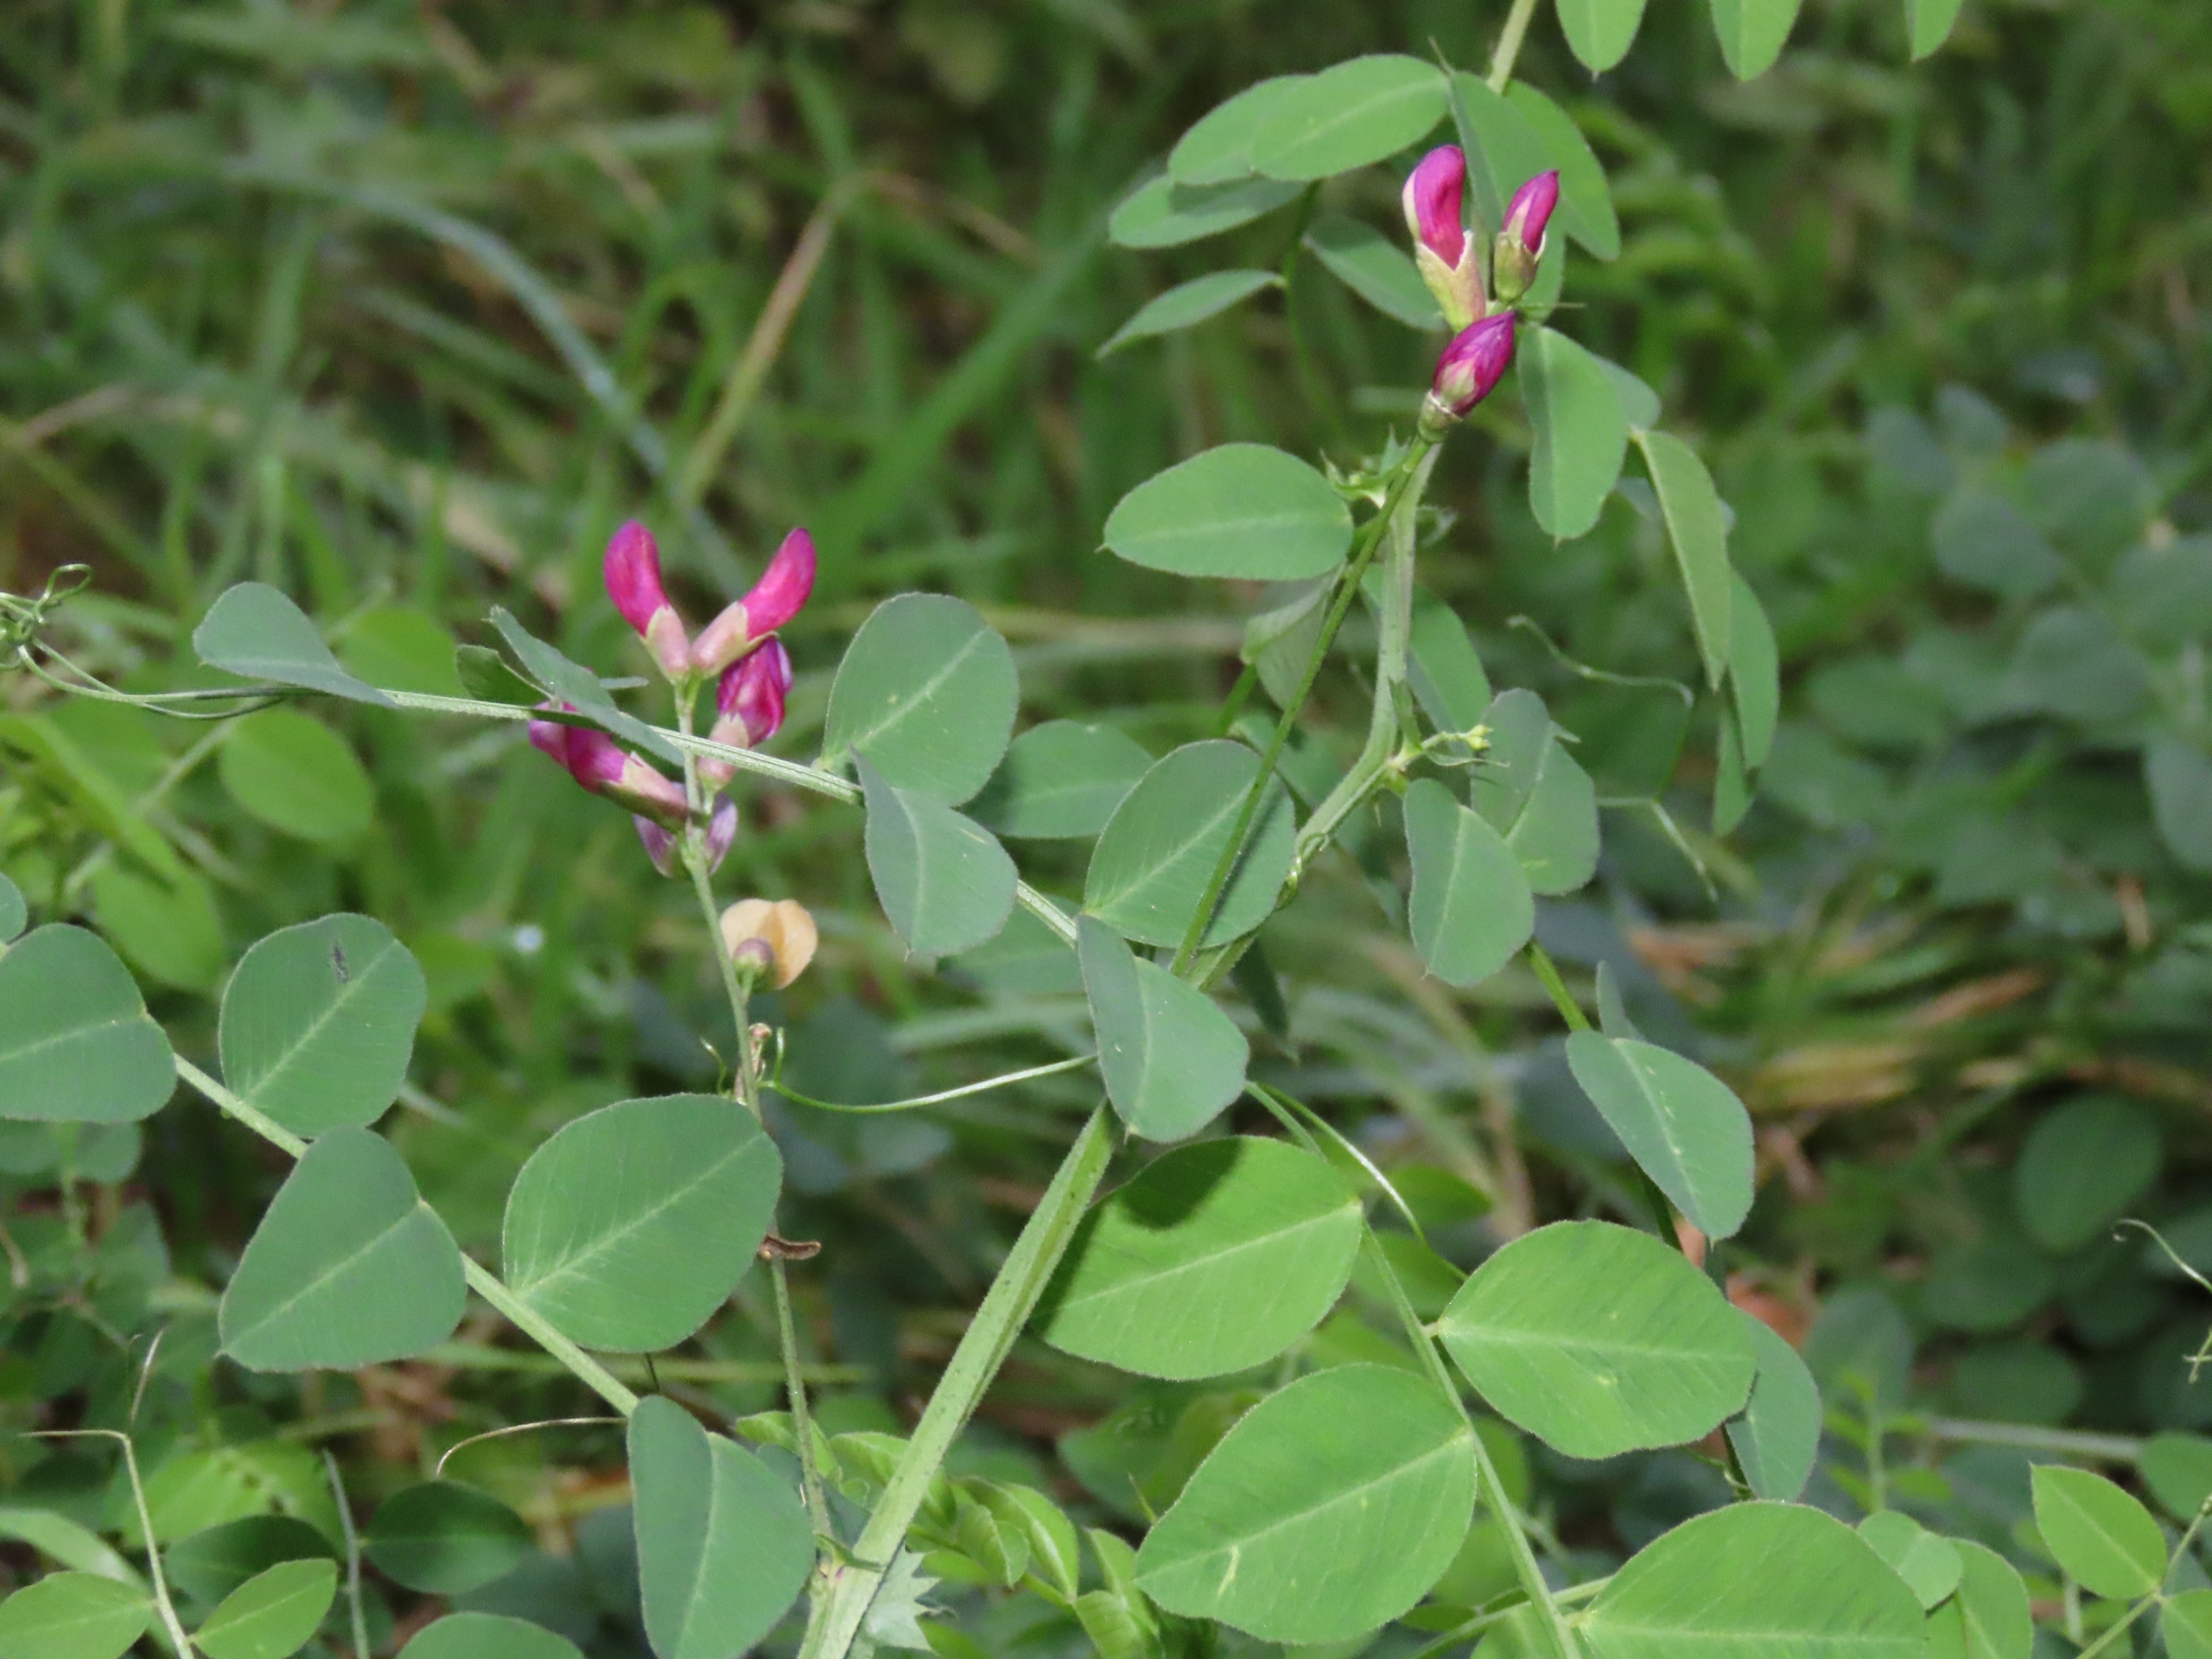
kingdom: Plantae
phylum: Tracheophyta
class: Magnoliopsida
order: Fabales
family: Fabaceae
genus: Vicia
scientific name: Vicia dumetorum
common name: Krat-vikke
